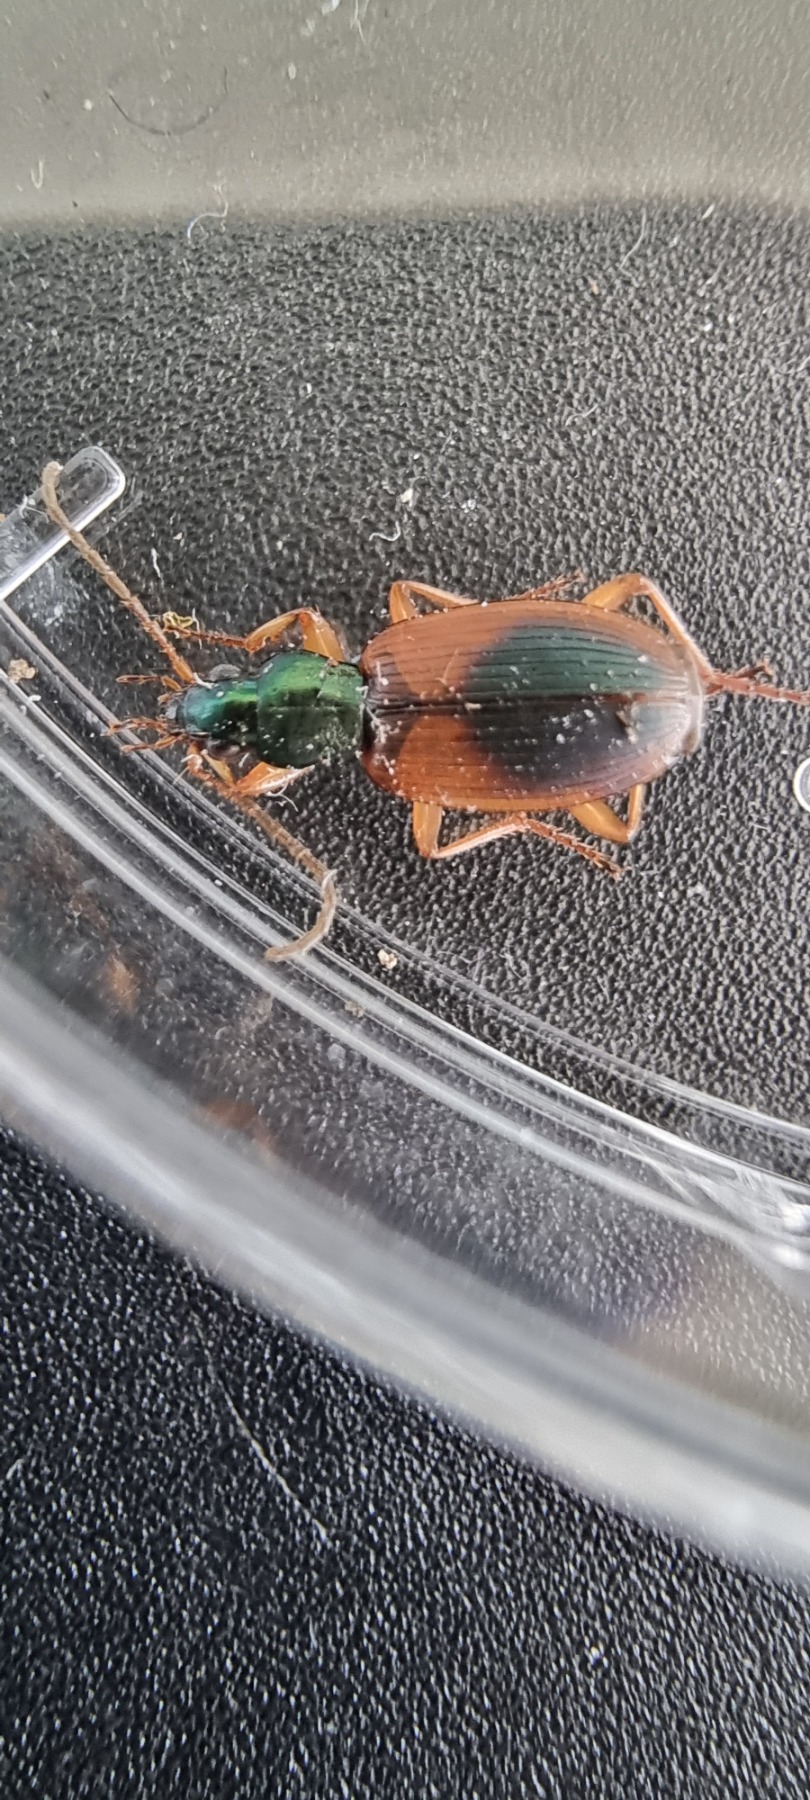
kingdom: Animalia
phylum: Arthropoda
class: Insecta
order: Coleoptera
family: Carabidae
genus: Anchomenus
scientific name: Anchomenus dorsalis
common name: Spraglet kvikløber
